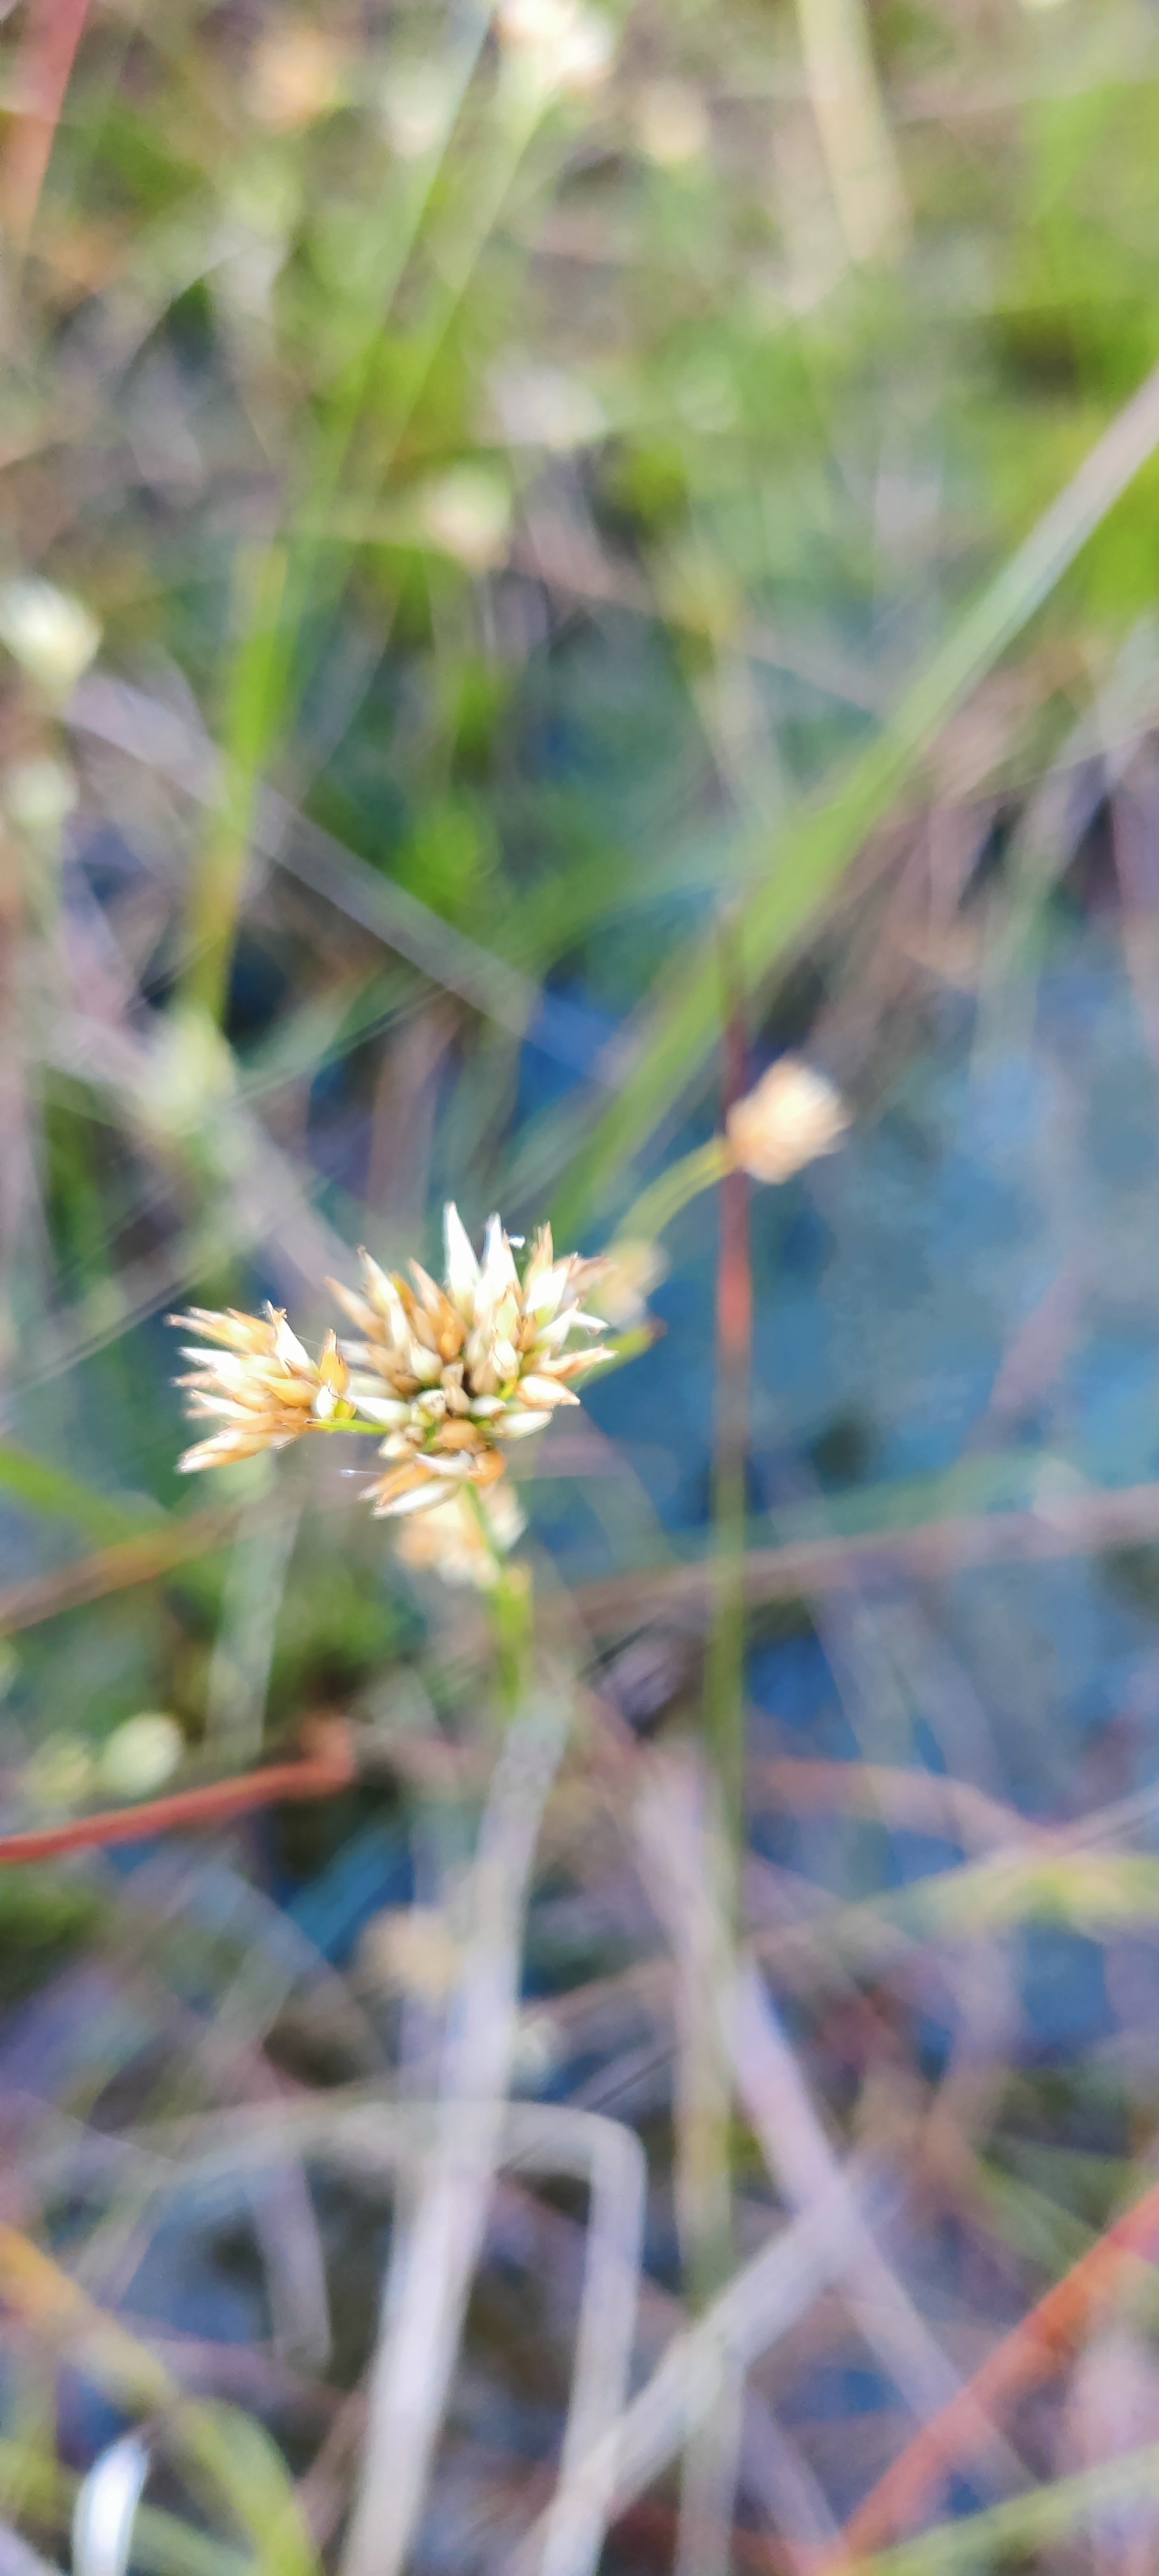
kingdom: Plantae
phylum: Tracheophyta
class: Liliopsida
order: Poales
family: Cyperaceae
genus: Rhynchospora
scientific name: Rhynchospora alba
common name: Hvid næbfrø
